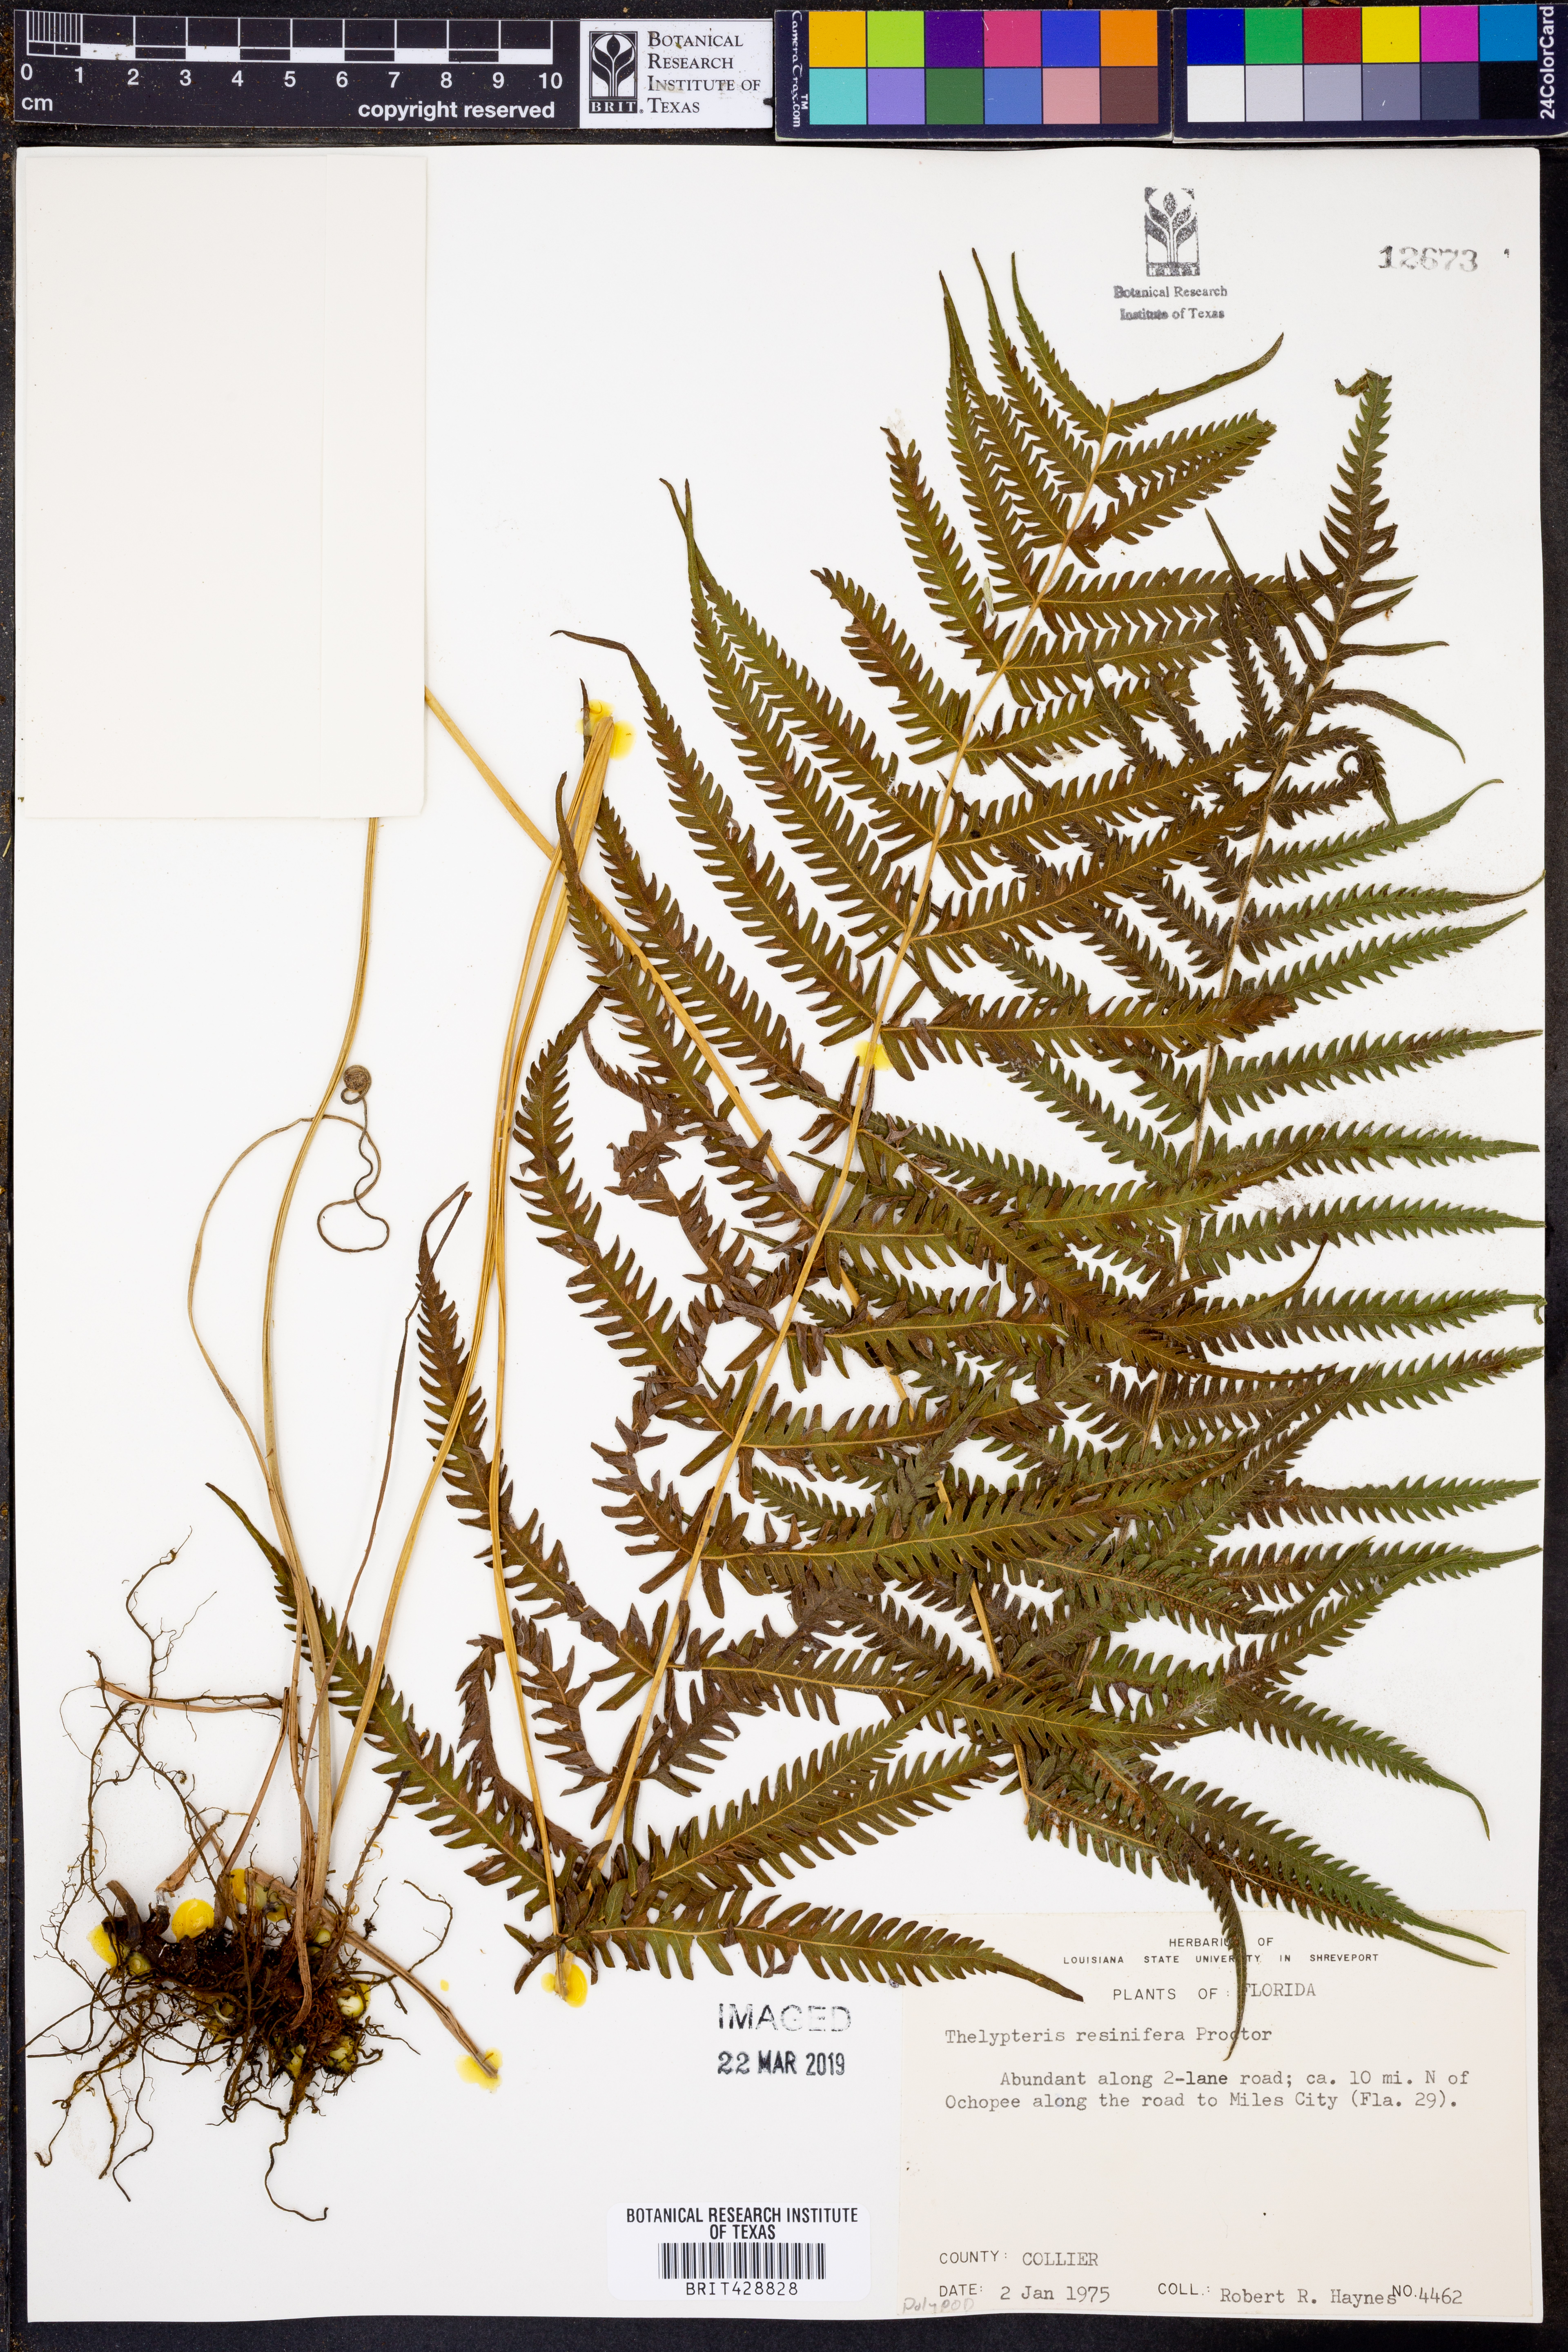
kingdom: Plantae
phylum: Tracheophyta
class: Polypodiopsida
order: Polypodiales
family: Thelypteridaceae
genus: Amauropelta
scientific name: Amauropelta resinifera
